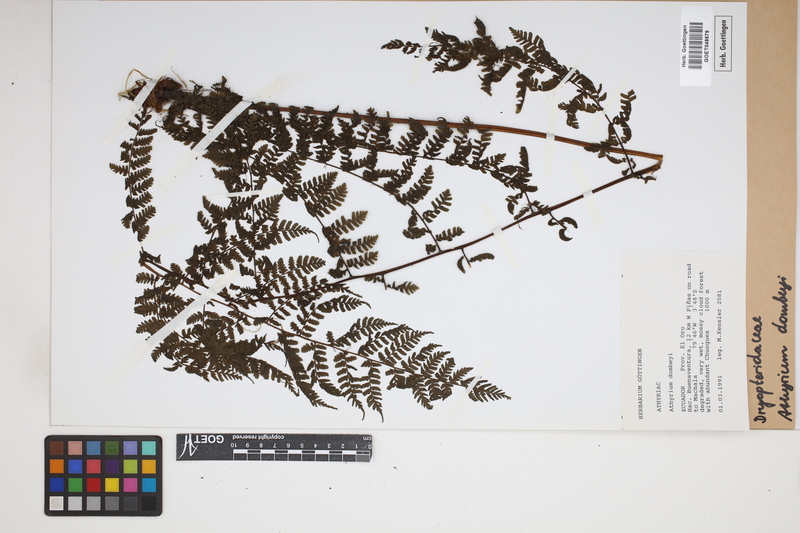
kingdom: Plantae
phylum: Tracheophyta
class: Polypodiopsida
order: Polypodiales
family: Athyriaceae
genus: Athyrium
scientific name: Athyrium dombeyi
